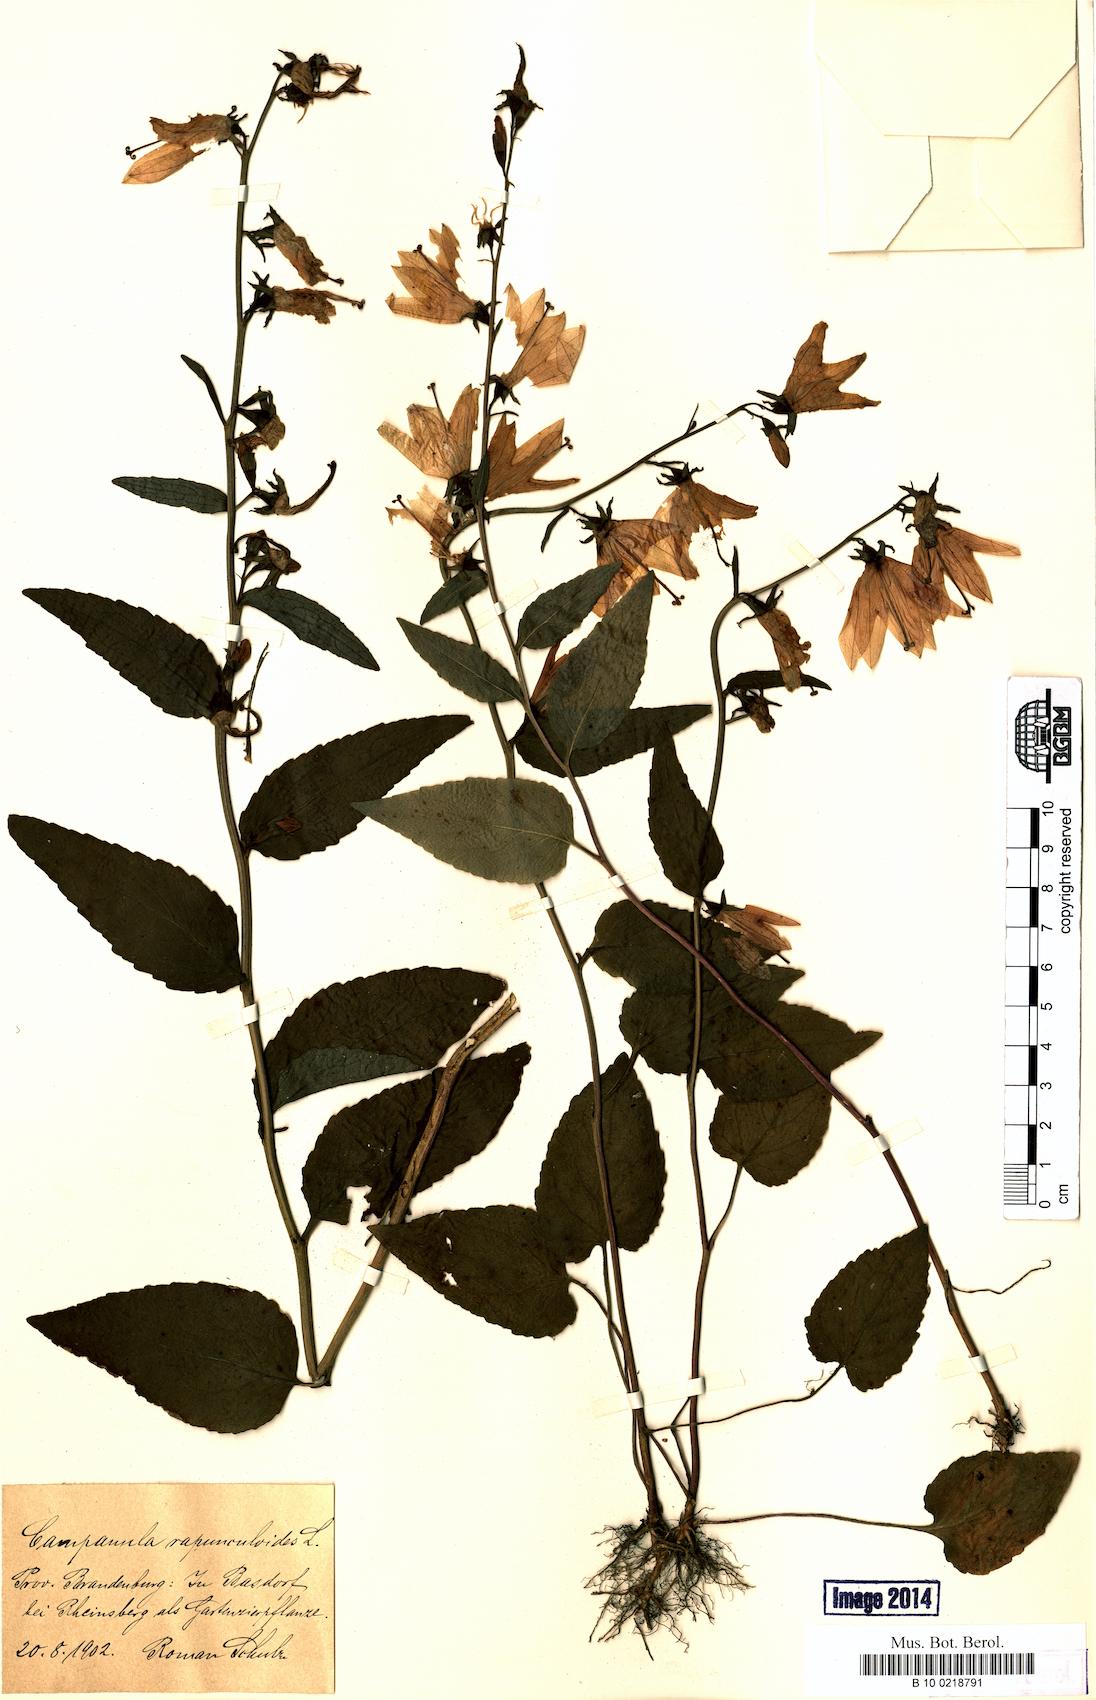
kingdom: Plantae
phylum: Tracheophyta
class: Magnoliopsida
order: Asterales
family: Campanulaceae
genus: Campanula
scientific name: Campanula rapunculoides
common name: Creeping bellflower
